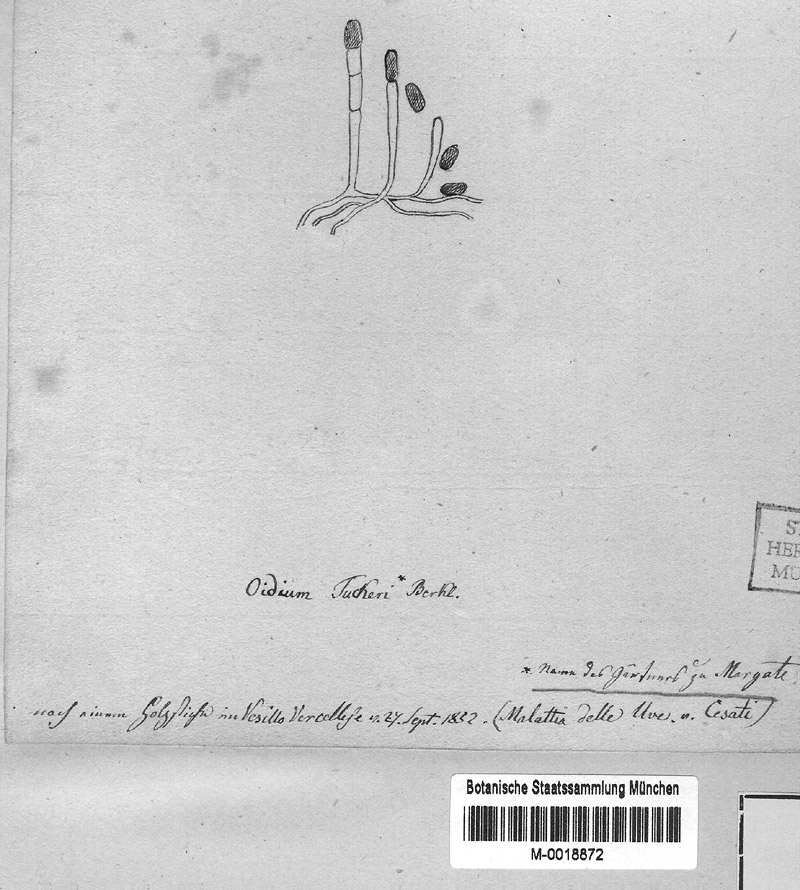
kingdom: Fungi
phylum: Ascomycota
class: Leotiomycetes
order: Helotiales
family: Erysiphaceae
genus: Erysiphe
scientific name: Erysiphe necator
